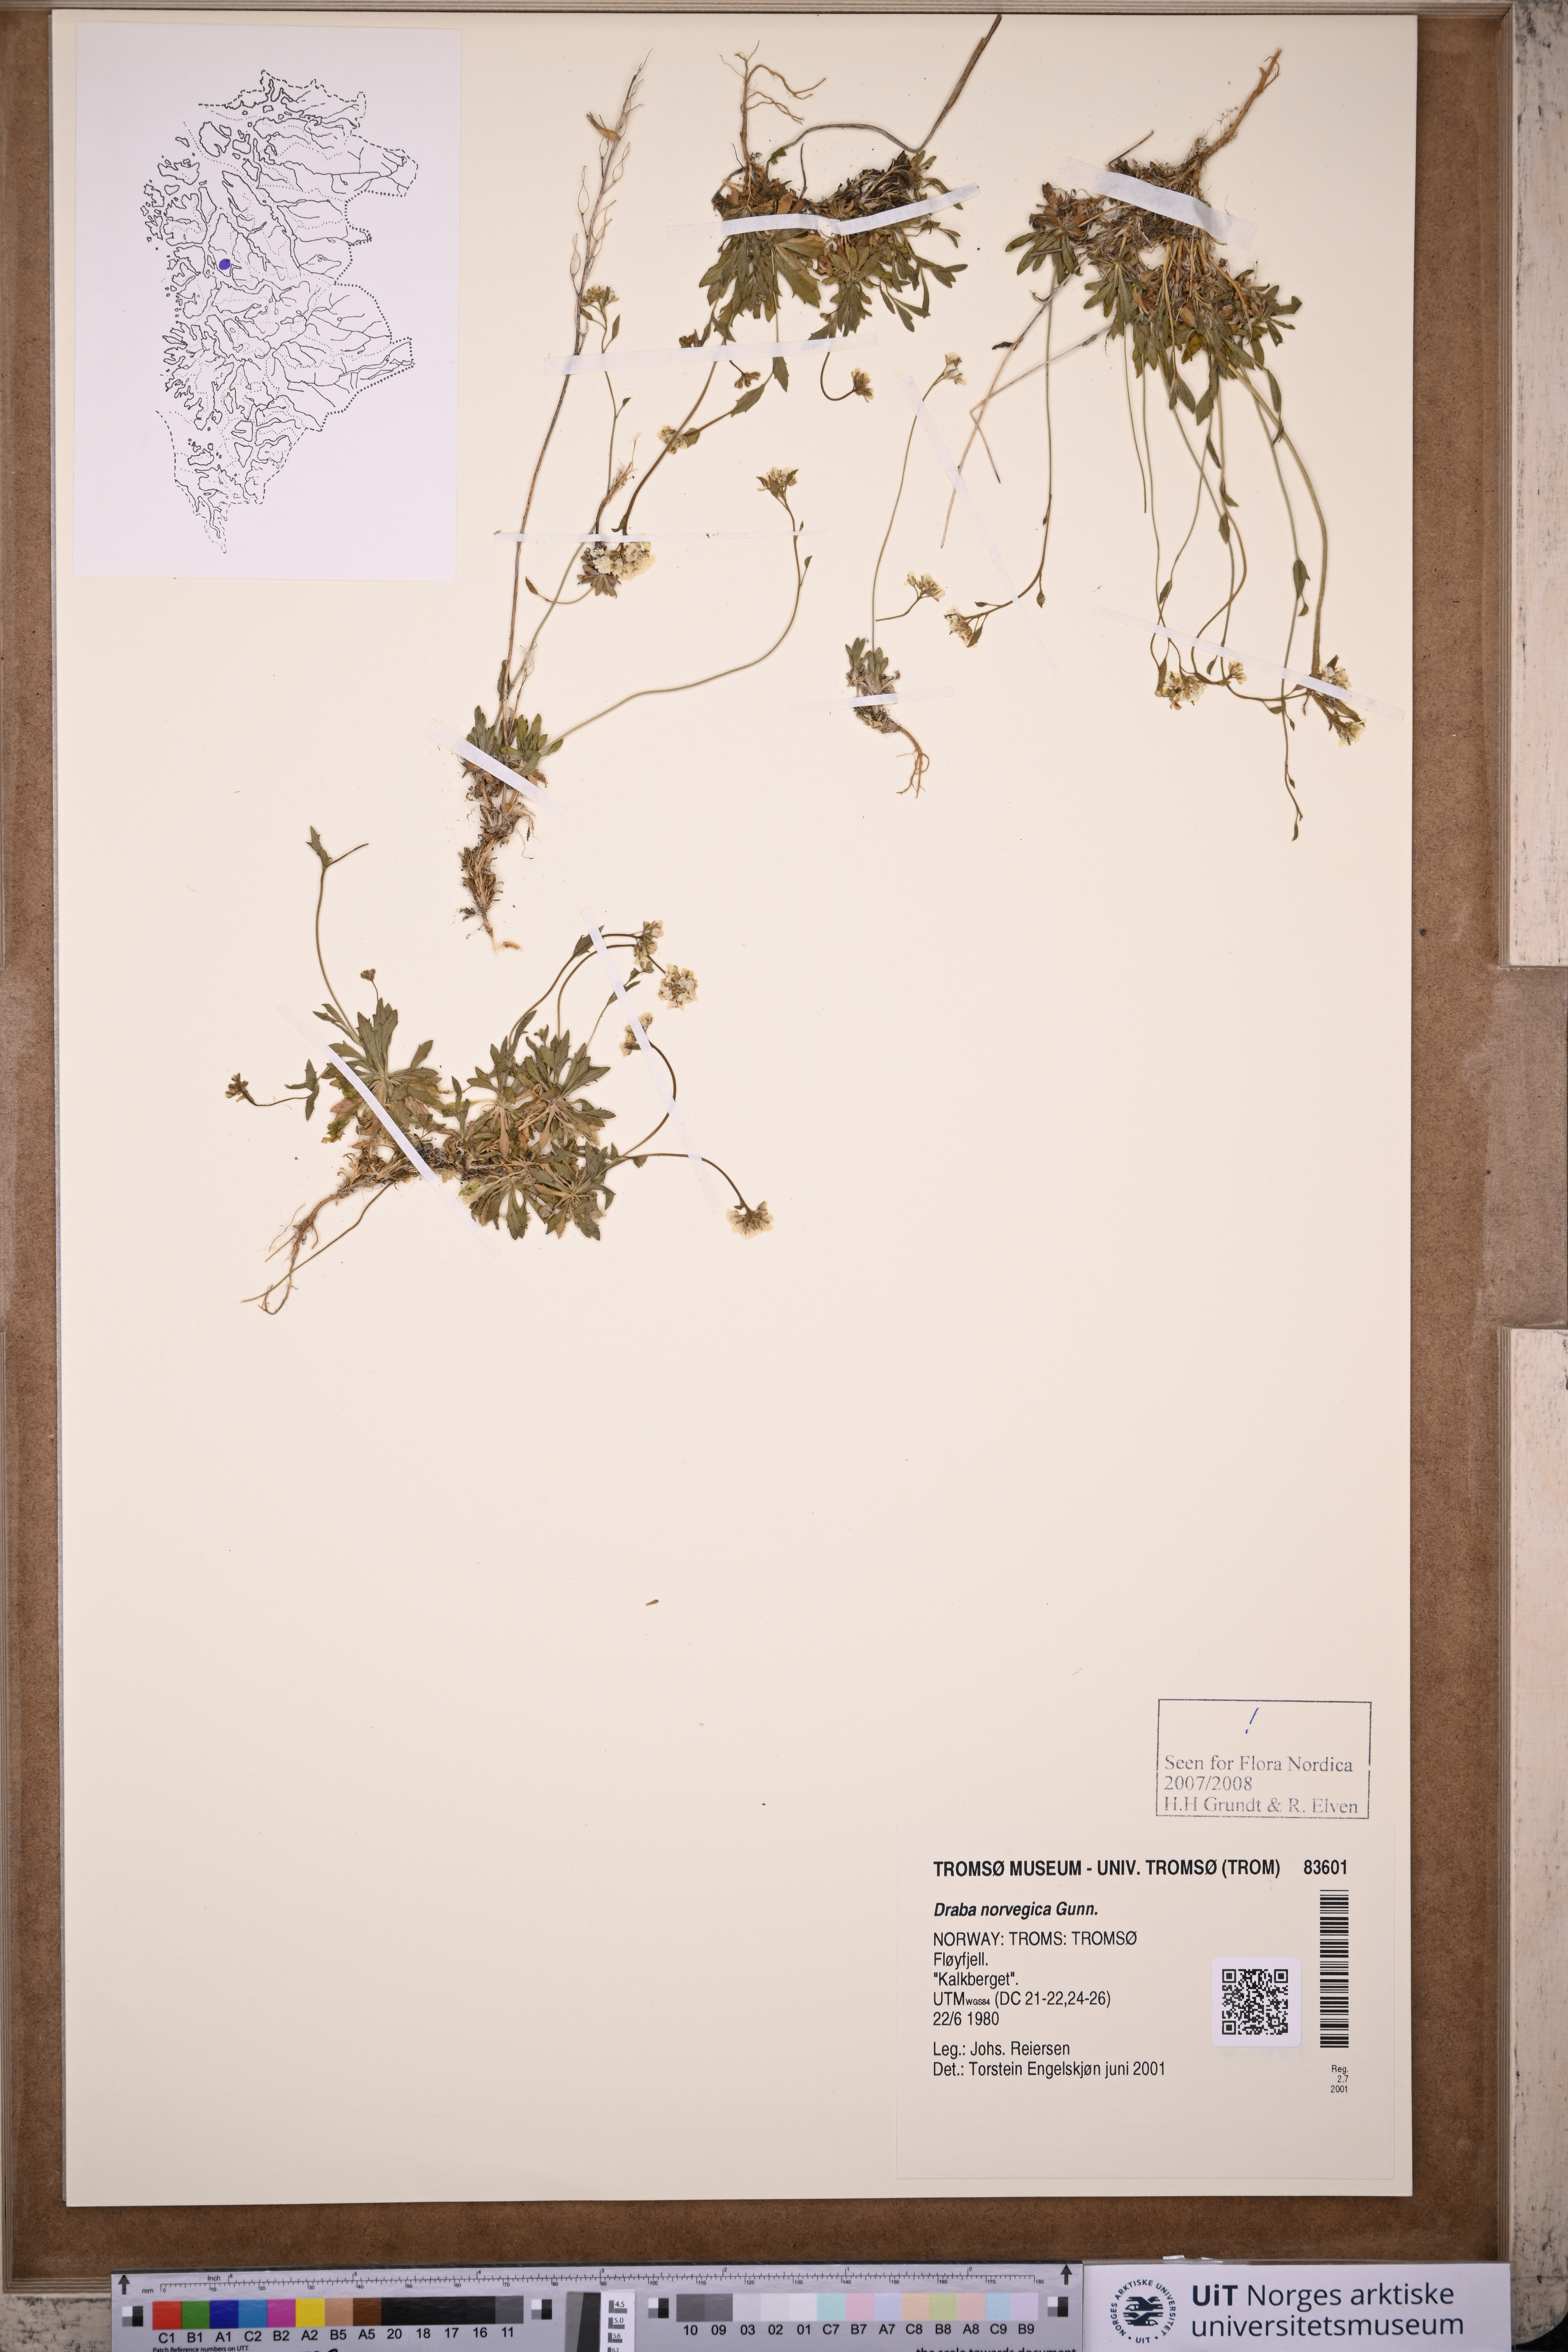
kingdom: Plantae
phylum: Tracheophyta
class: Magnoliopsida
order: Brassicales
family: Brassicaceae
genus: Draba
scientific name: Draba norvegica
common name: Rock whitlowgrass
